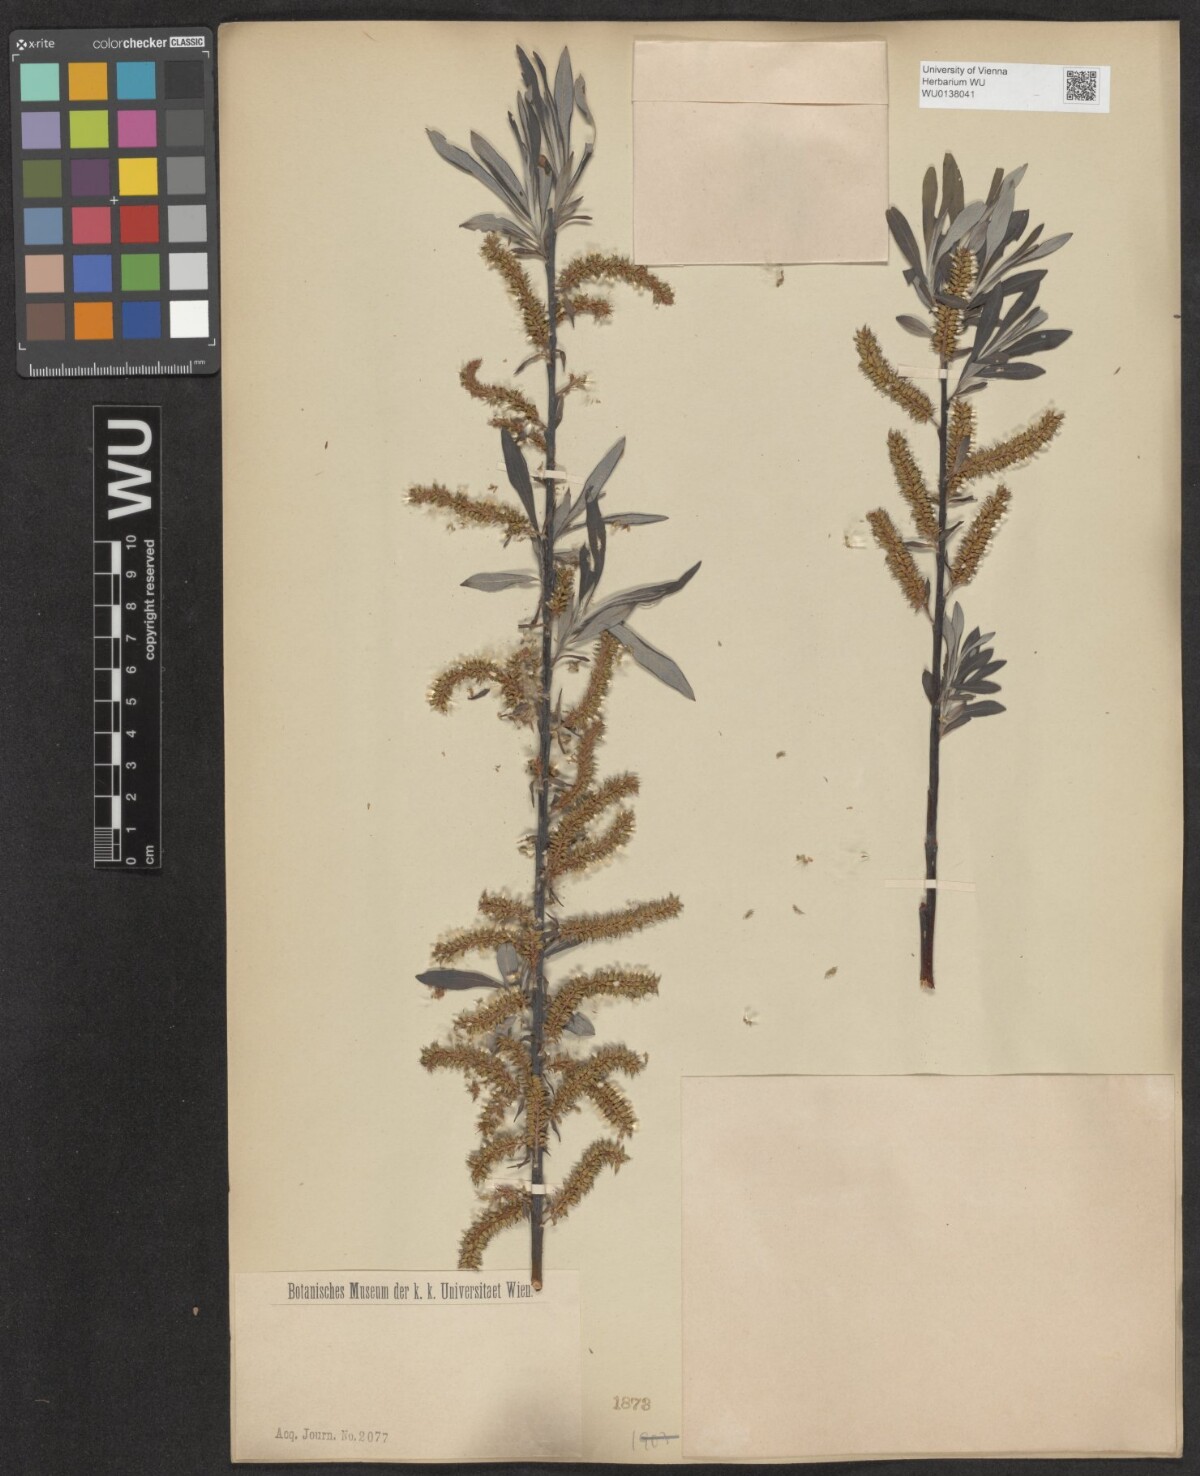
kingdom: Plantae
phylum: Tracheophyta
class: Magnoliopsida
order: Malpighiales
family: Salicaceae
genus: Salix
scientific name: Salix eleagnos
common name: Elaeagnus willow
